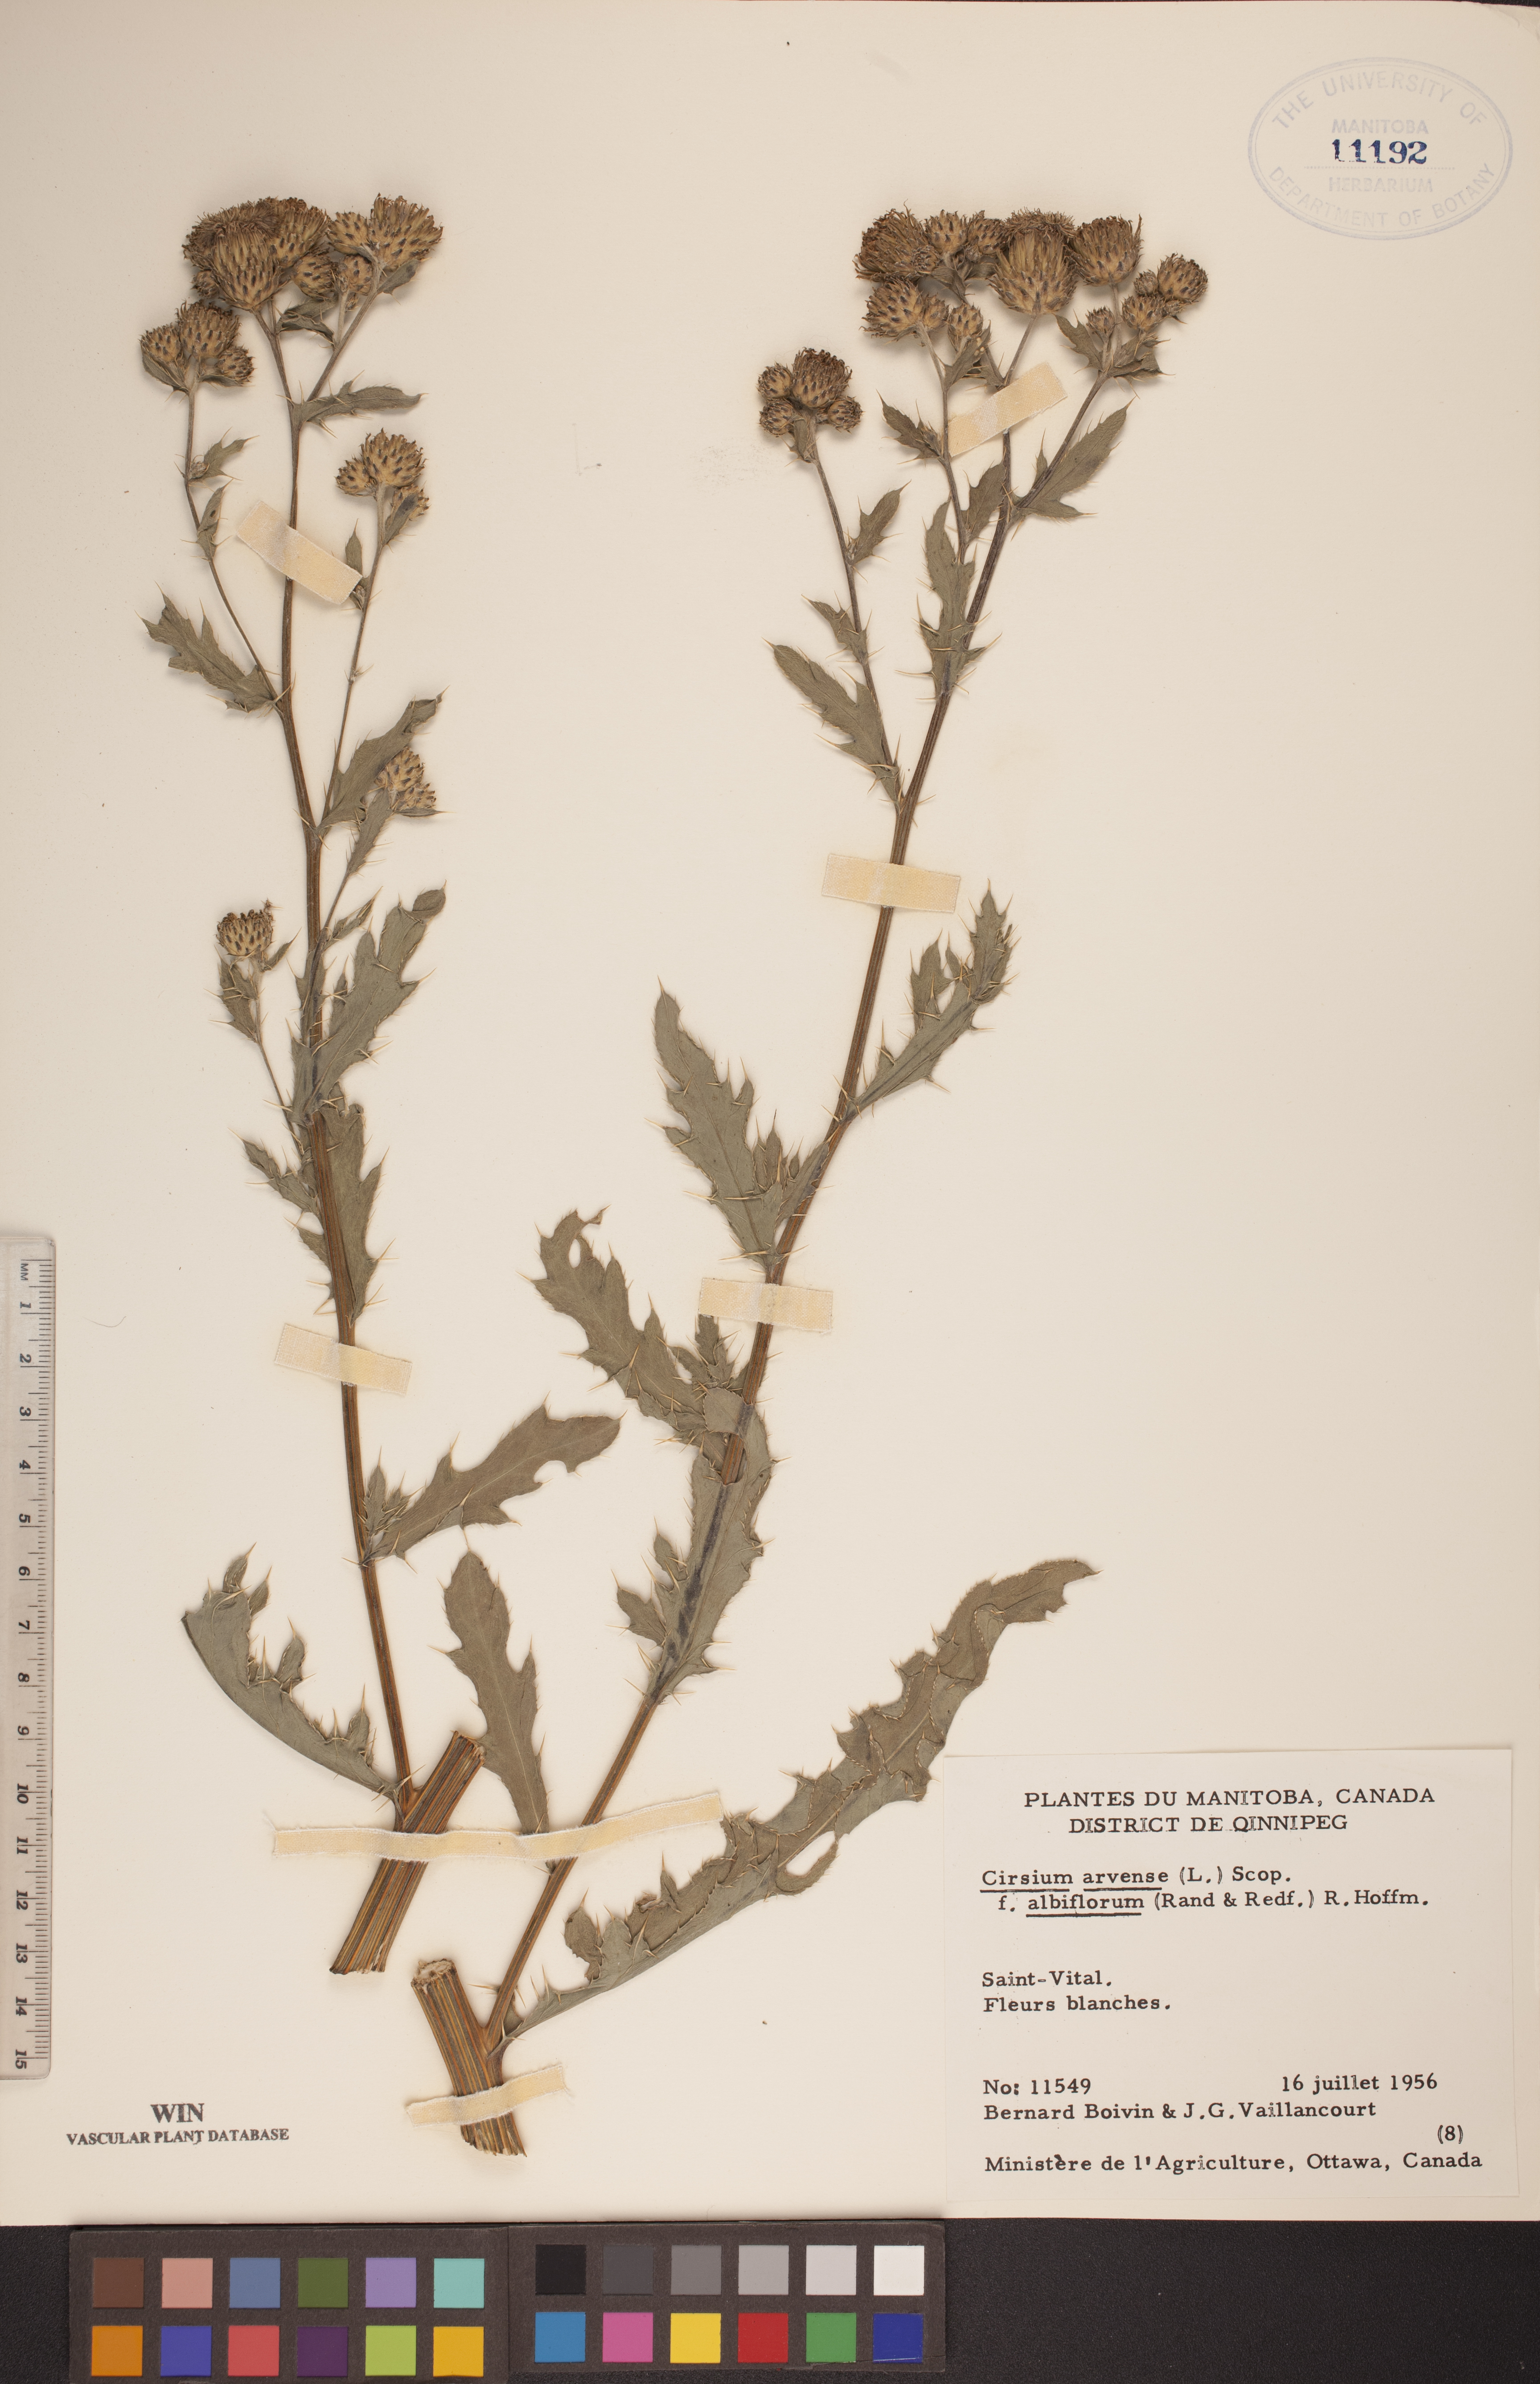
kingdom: Plantae
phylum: Tracheophyta
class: Magnoliopsida
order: Asterales
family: Asteraceae
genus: Cirsium
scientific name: Cirsium arvense
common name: Creeping thistle
